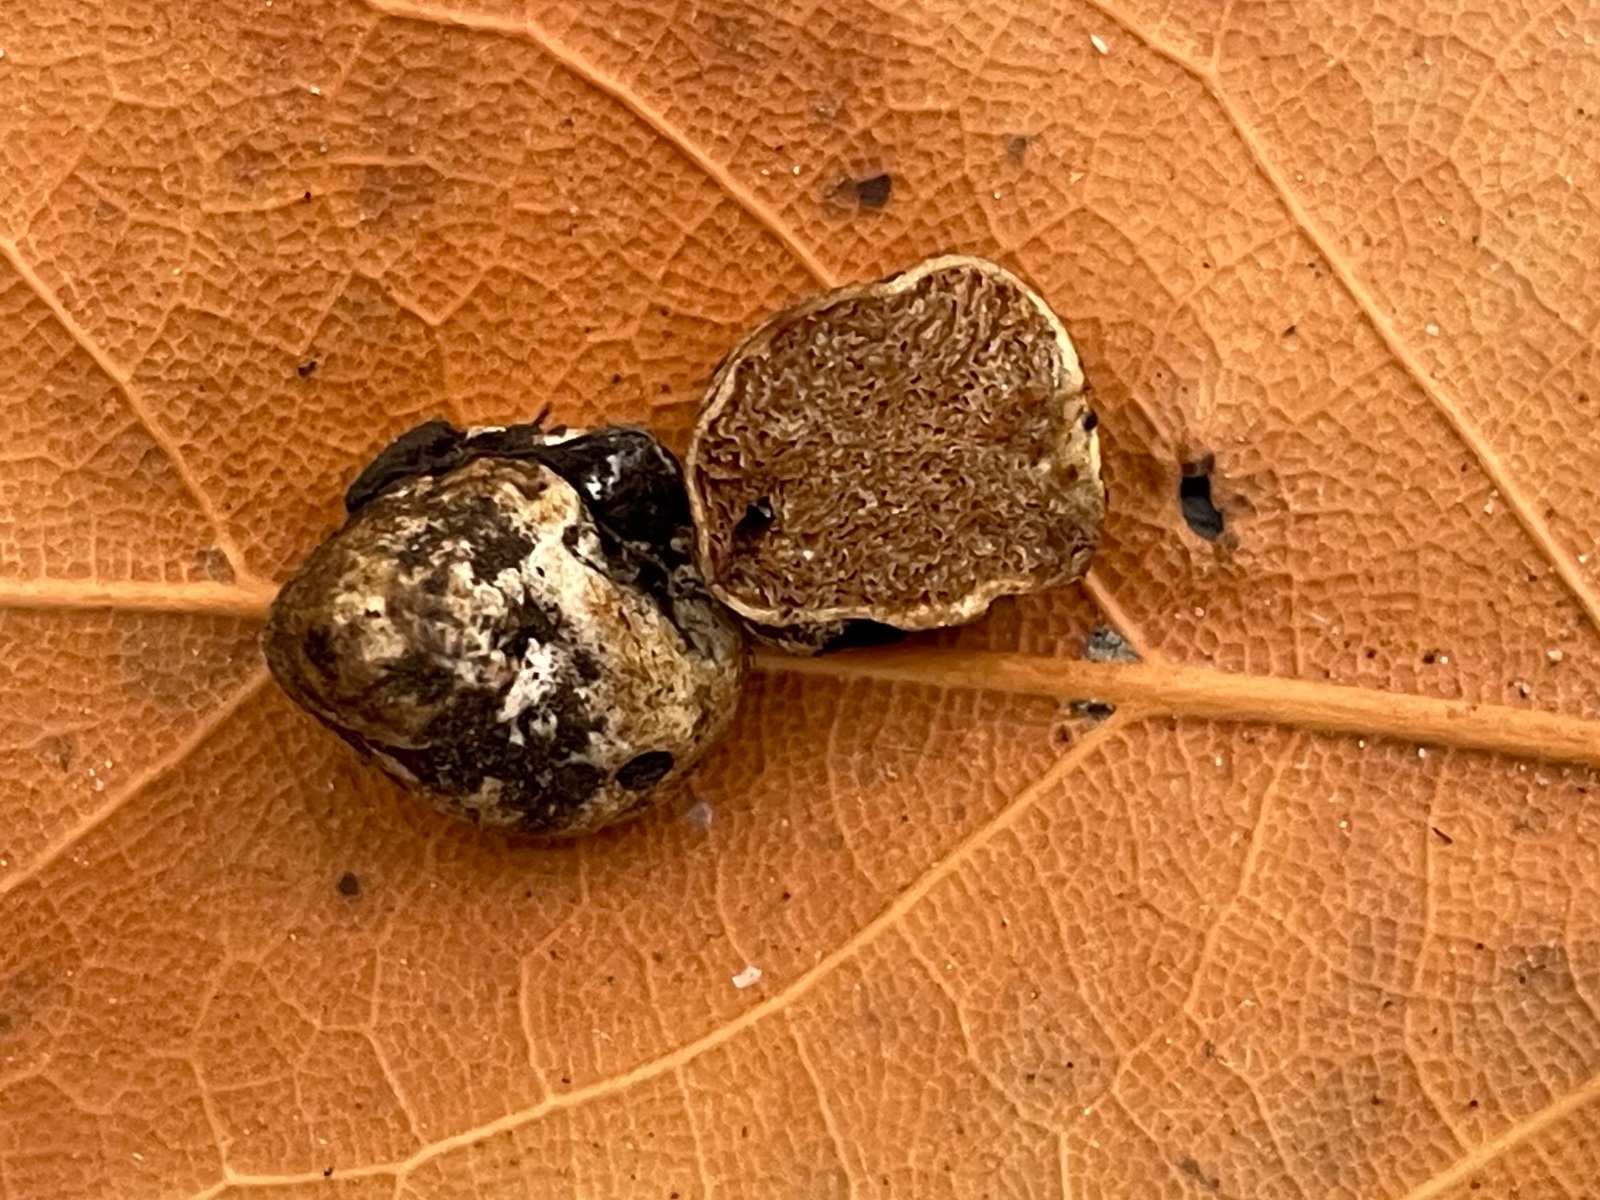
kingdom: Fungi
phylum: Basidiomycota
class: Agaricomycetes
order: Agaricales
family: Hymenogastraceae
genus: Hymenogaster
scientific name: Hymenogaster
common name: knoldtrøffel
